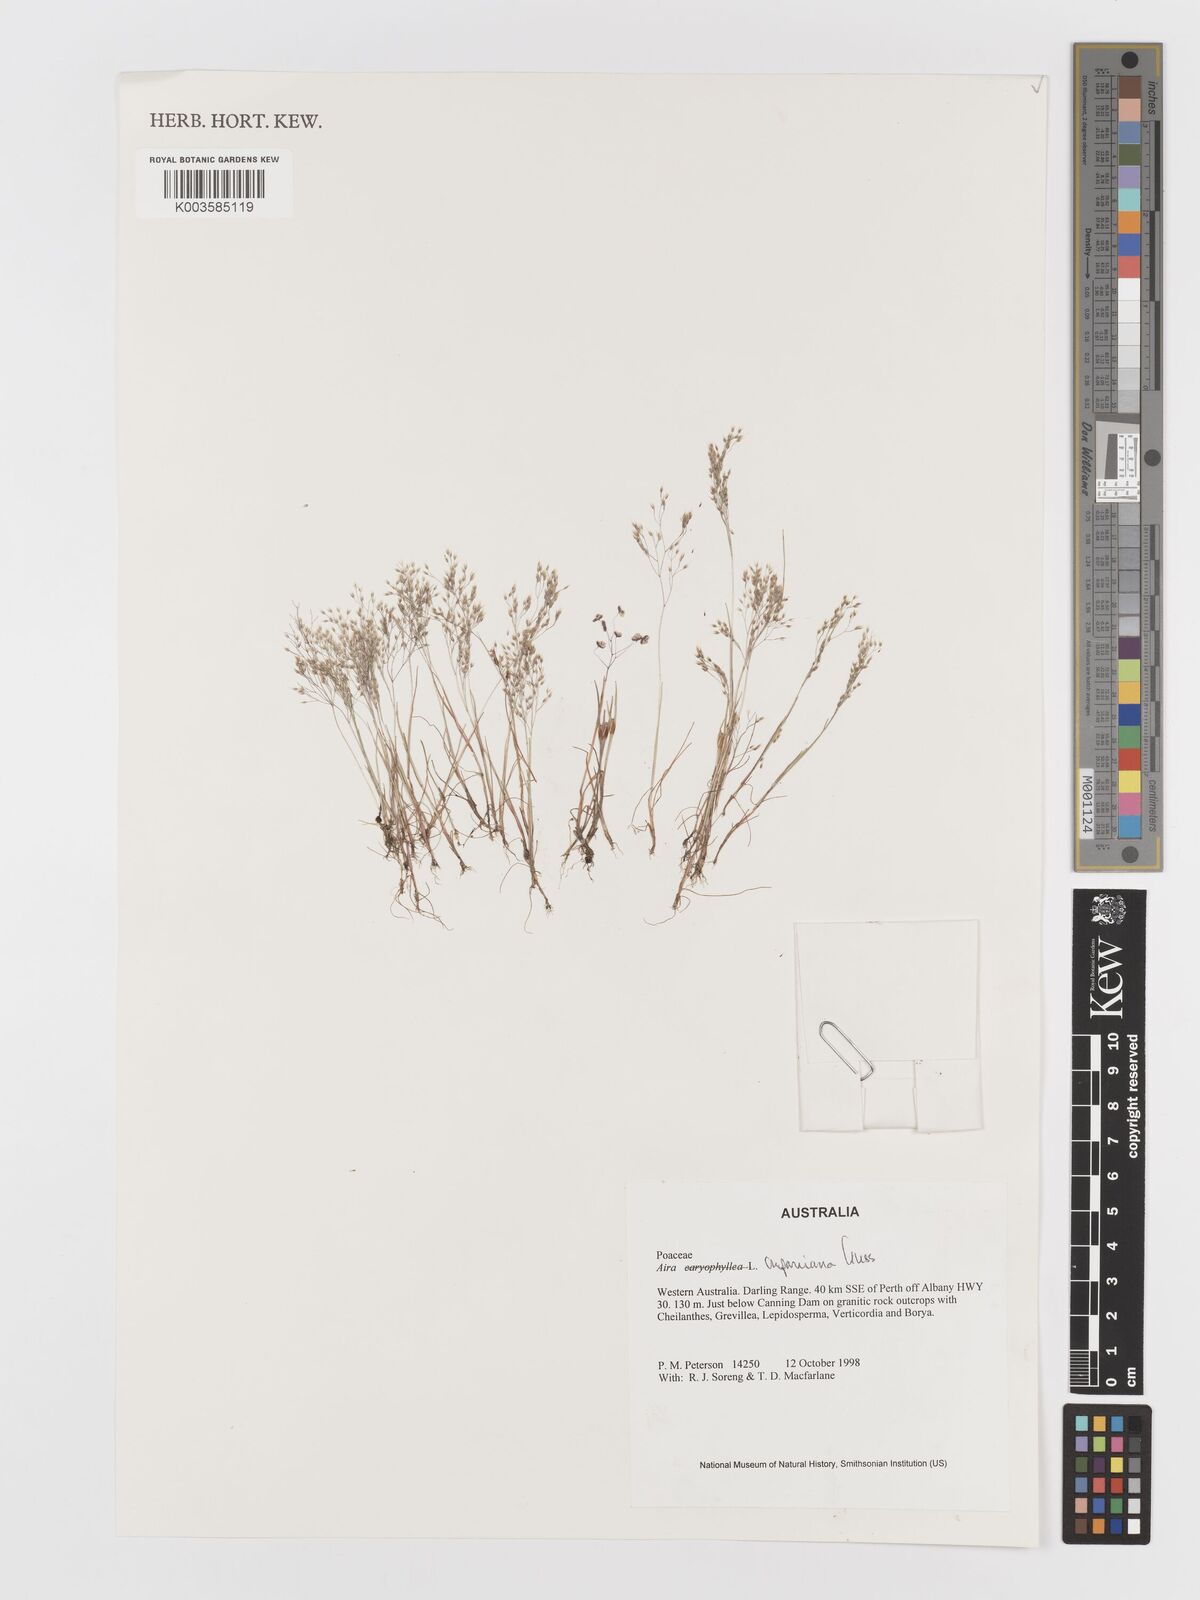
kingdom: Plantae
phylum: Tracheophyta
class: Liliopsida
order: Poales
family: Poaceae
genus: Aira
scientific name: Aira cupaniana
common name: Silver hairgrass
